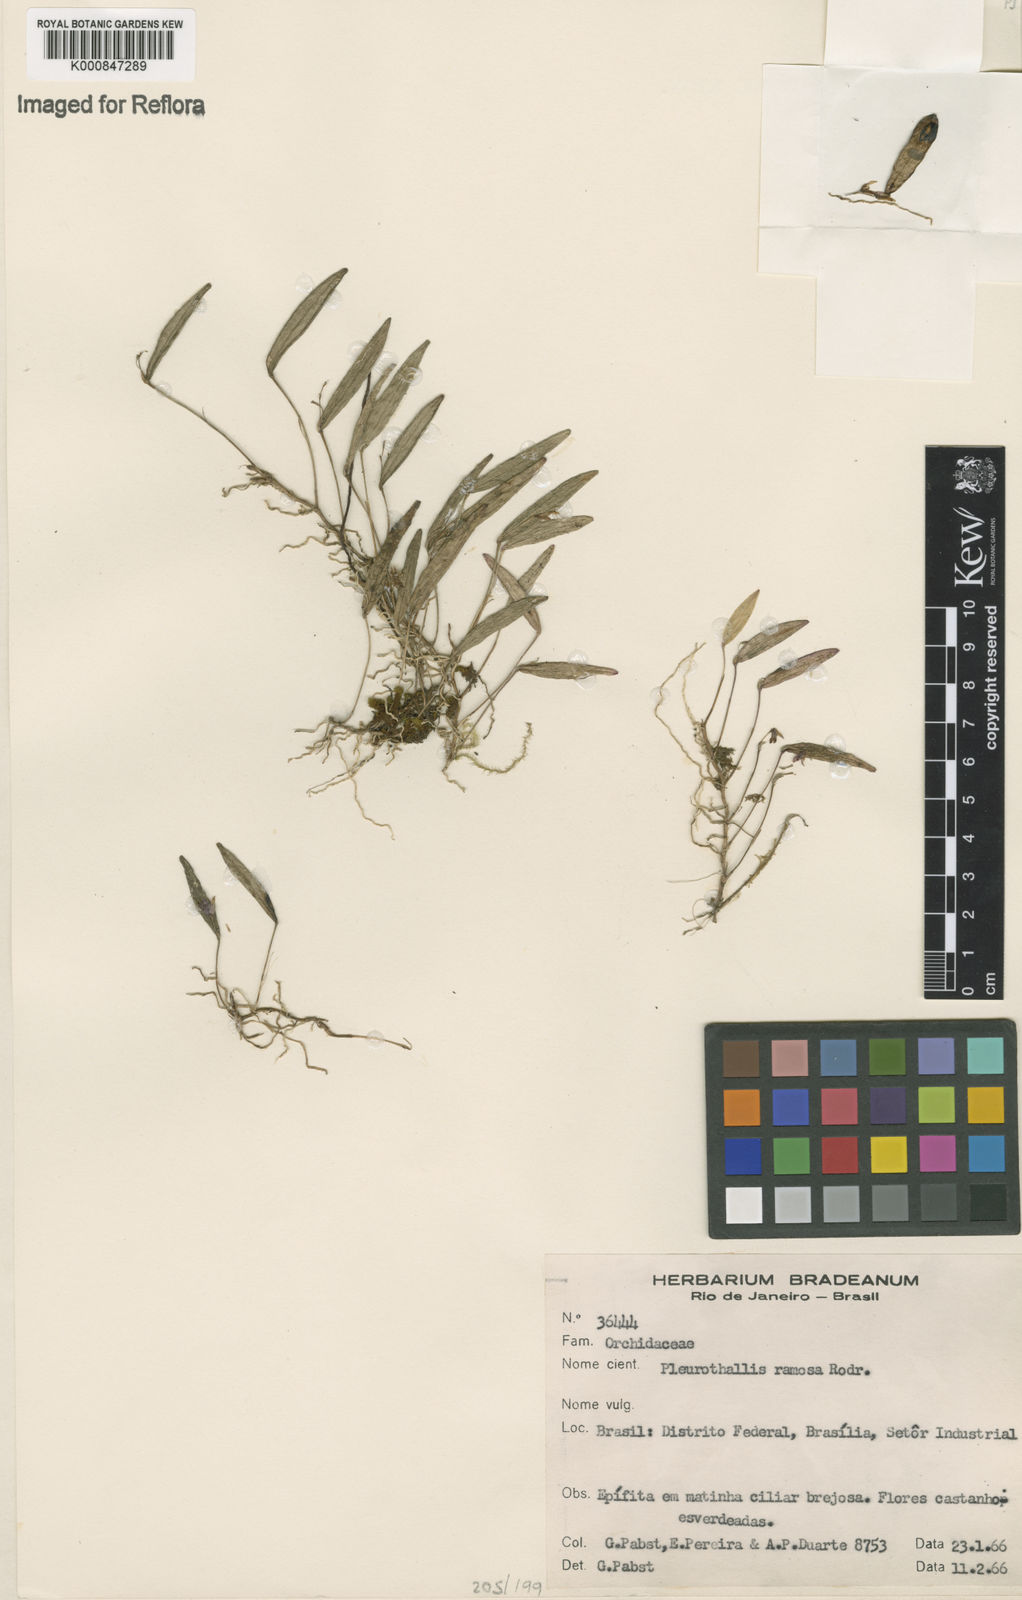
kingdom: Plantae
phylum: Tracheophyta
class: Liliopsida
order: Asparagales
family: Orchidaceae
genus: Acianthera
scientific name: Acianthera ramosa
